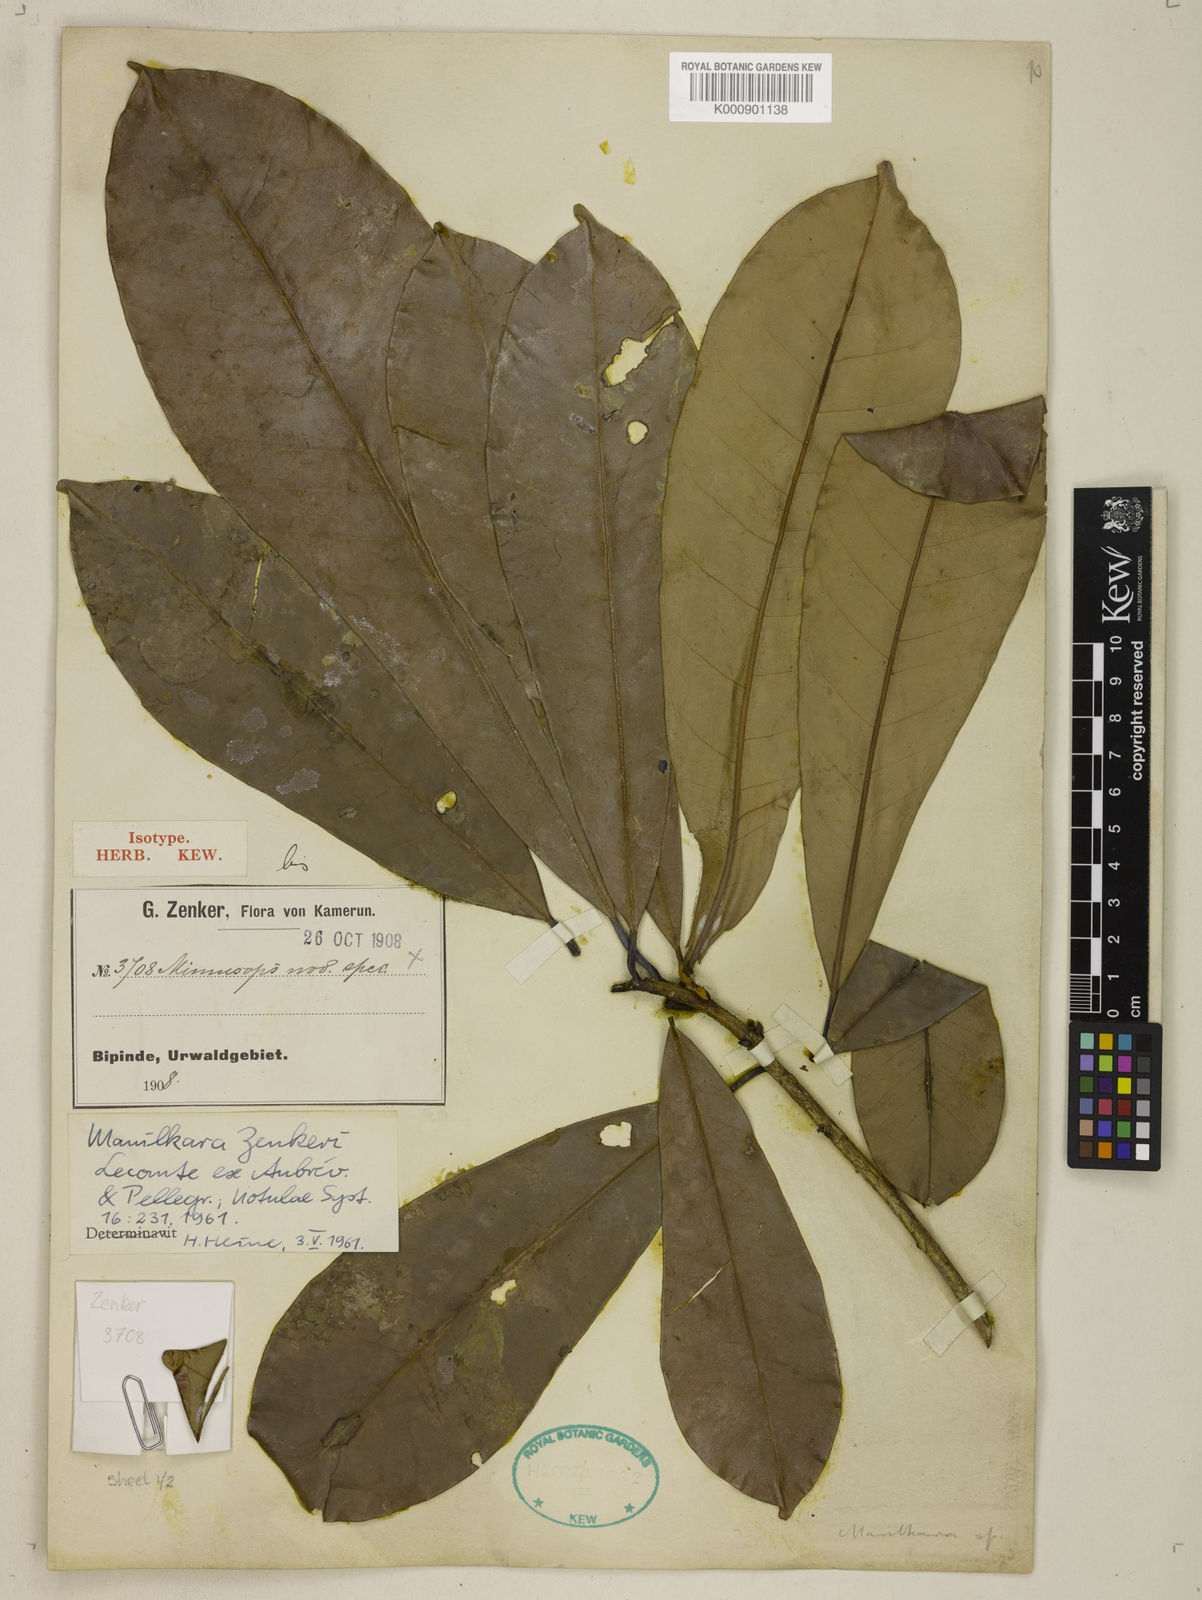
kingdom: Plantae
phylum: Tracheophyta
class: Magnoliopsida
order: Ericales
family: Sapotaceae
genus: Manilkara
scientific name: Manilkara
